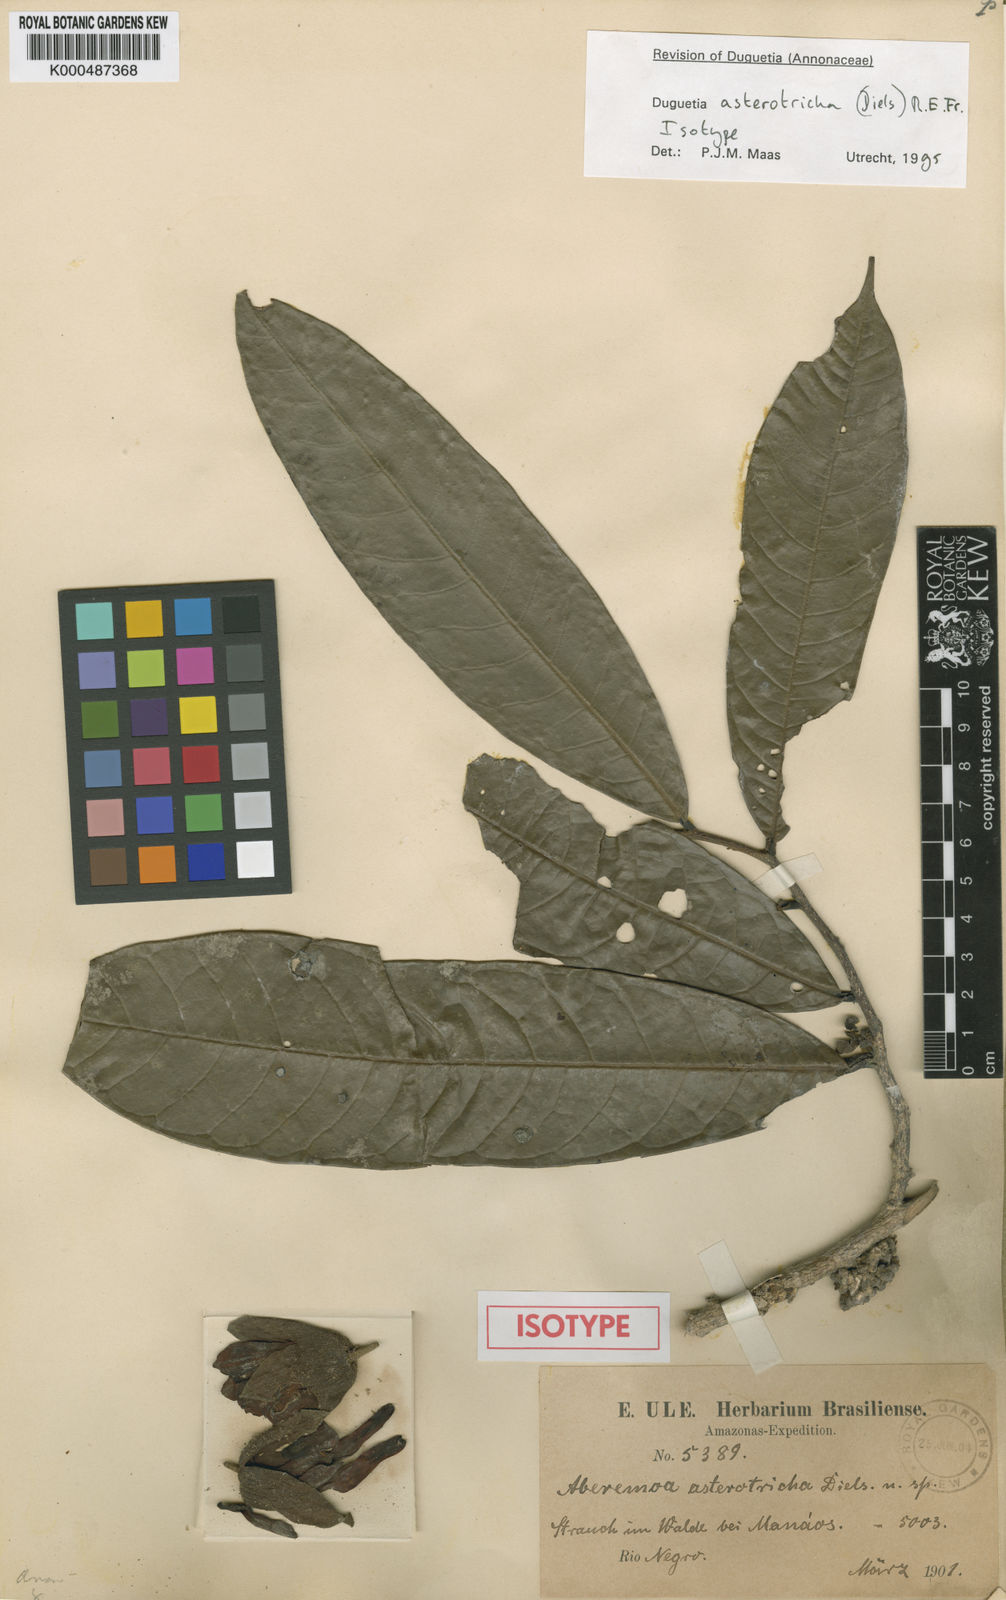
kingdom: Plantae
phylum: Tracheophyta
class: Magnoliopsida
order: Magnoliales
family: Annonaceae
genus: Duguetia
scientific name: Duguetia asterotricha
